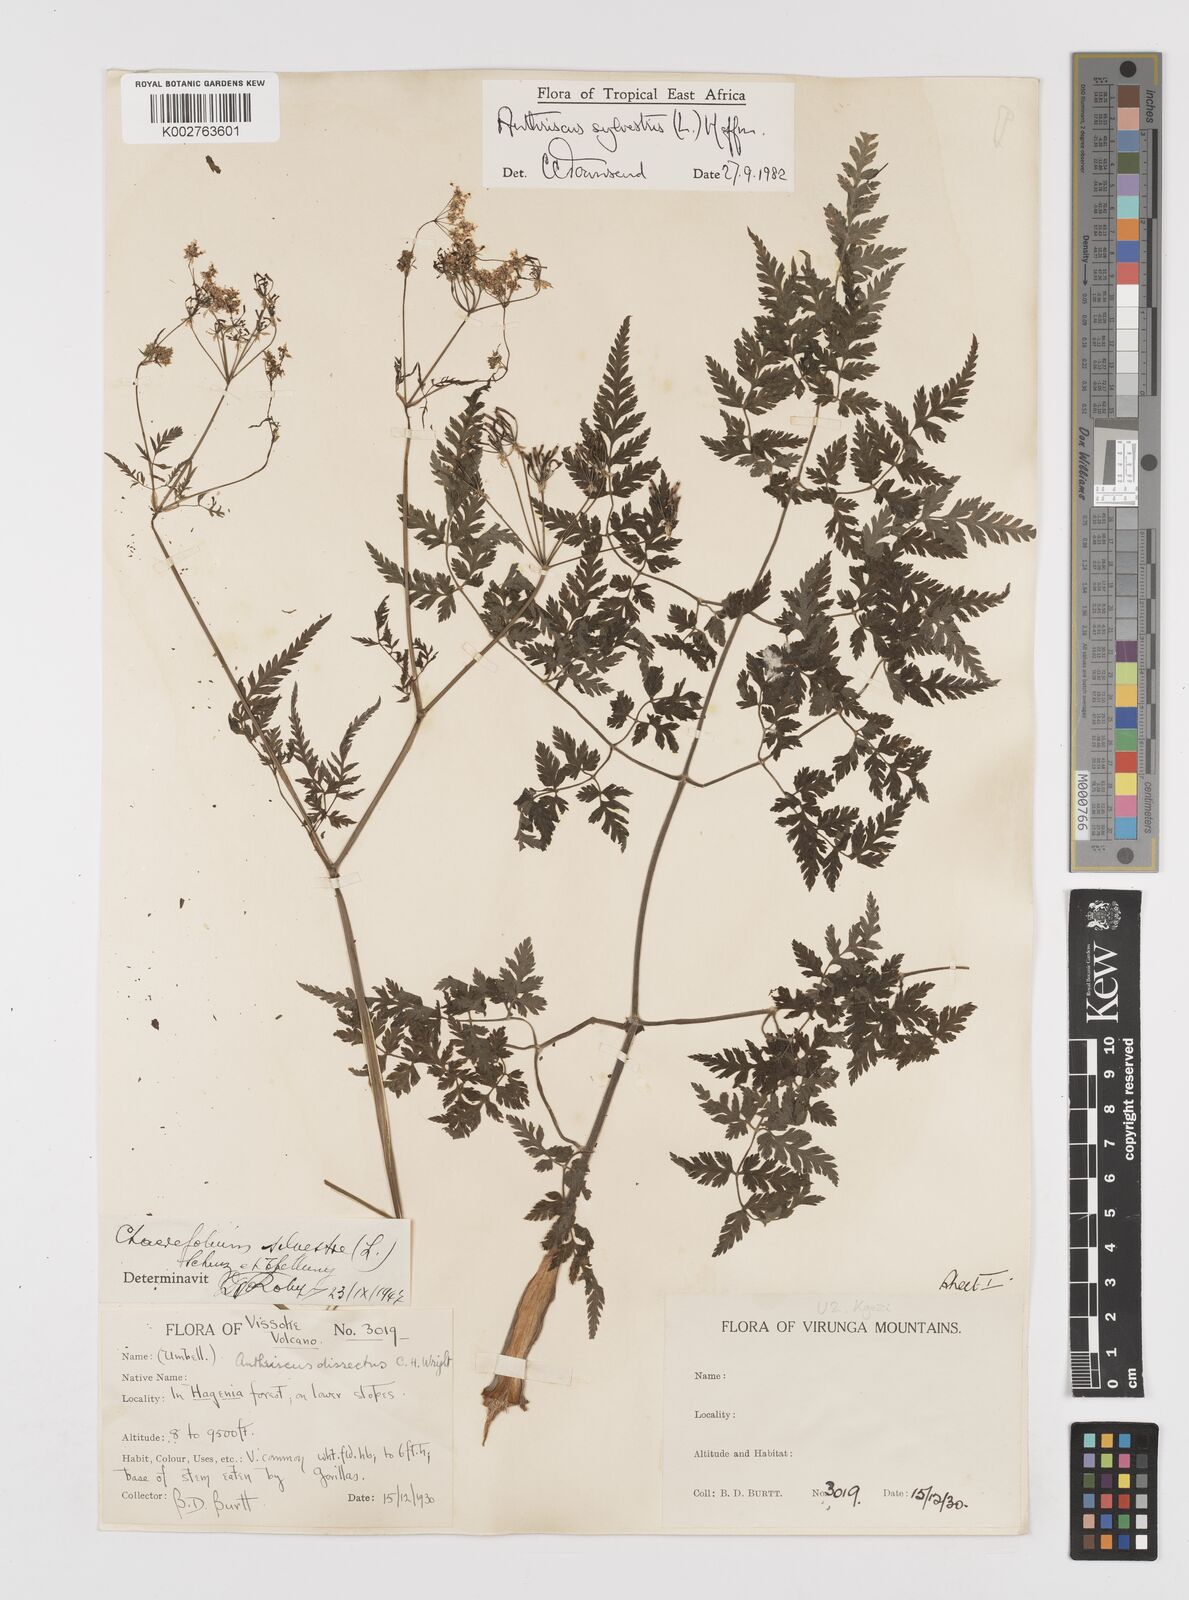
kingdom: Plantae
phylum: Tracheophyta
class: Magnoliopsida
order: Apiales
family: Apiaceae
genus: Anthriscus
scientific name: Anthriscus sylvestris
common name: Cow parsley
